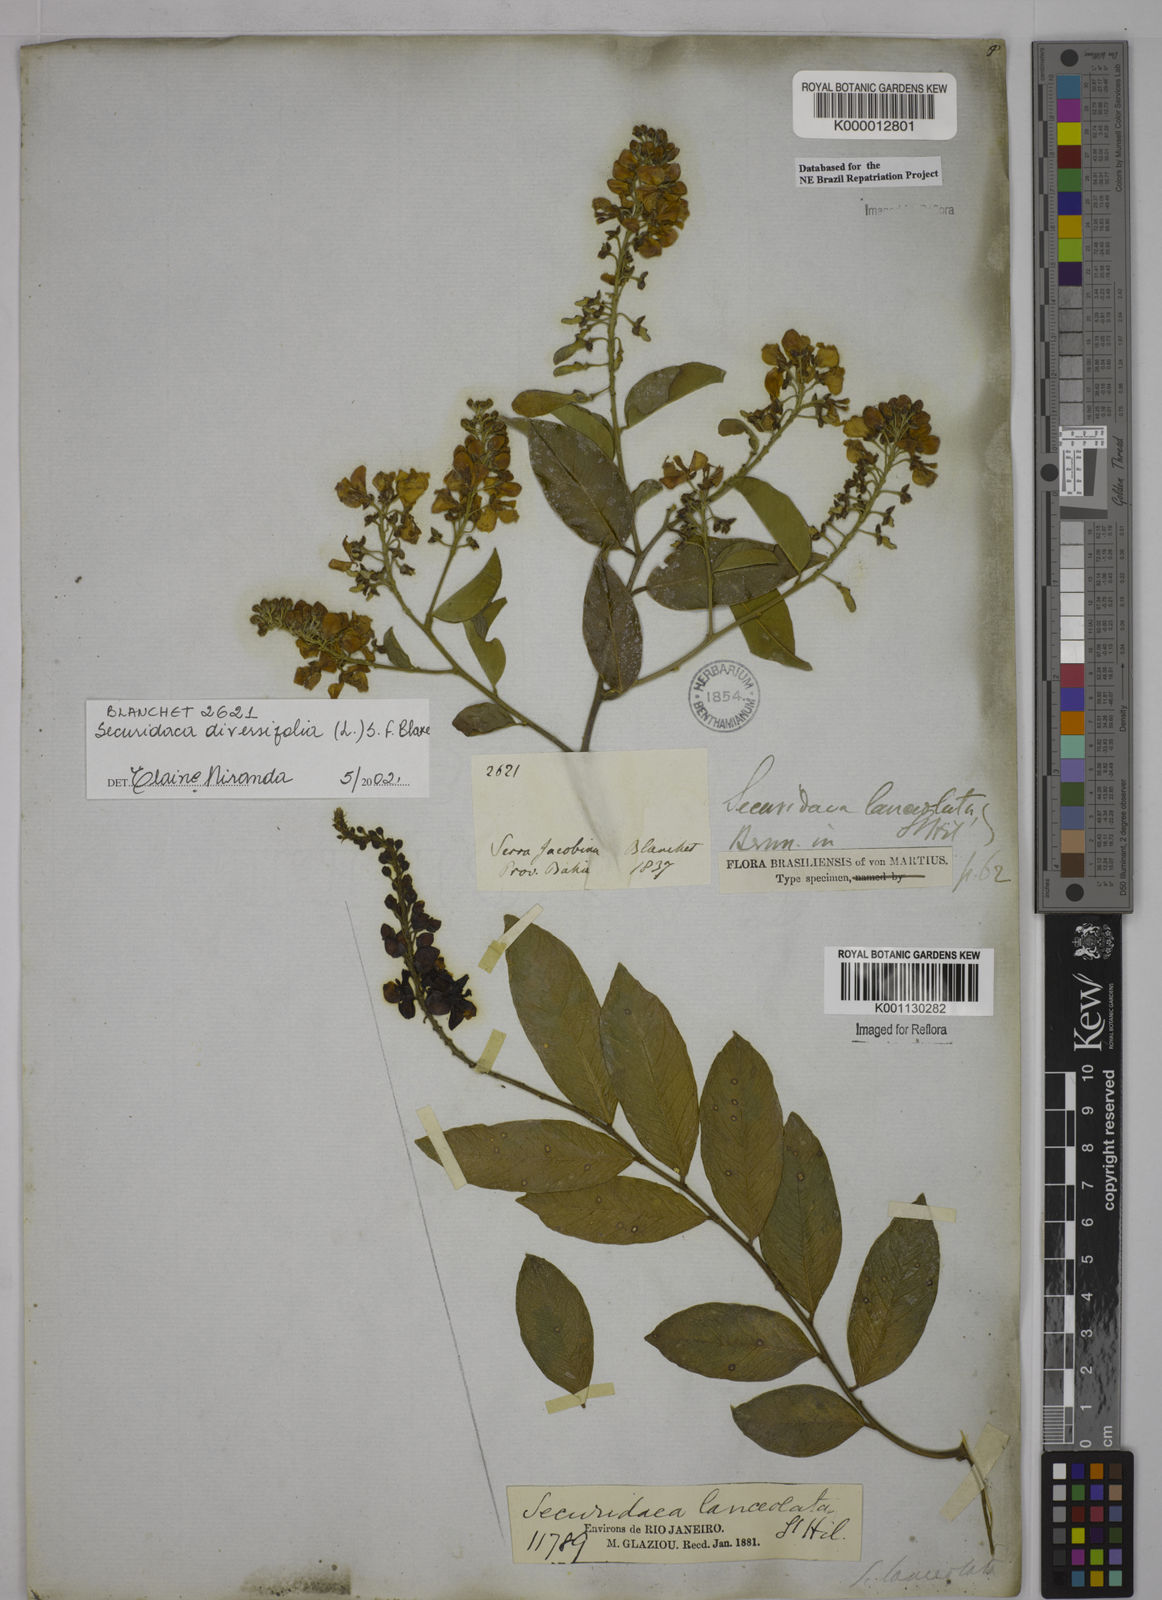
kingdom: Plantae
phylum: Tracheophyta
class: Magnoliopsida
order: Fabales
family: Polygalaceae
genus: Securidaca
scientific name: Securidaca diversifolia
